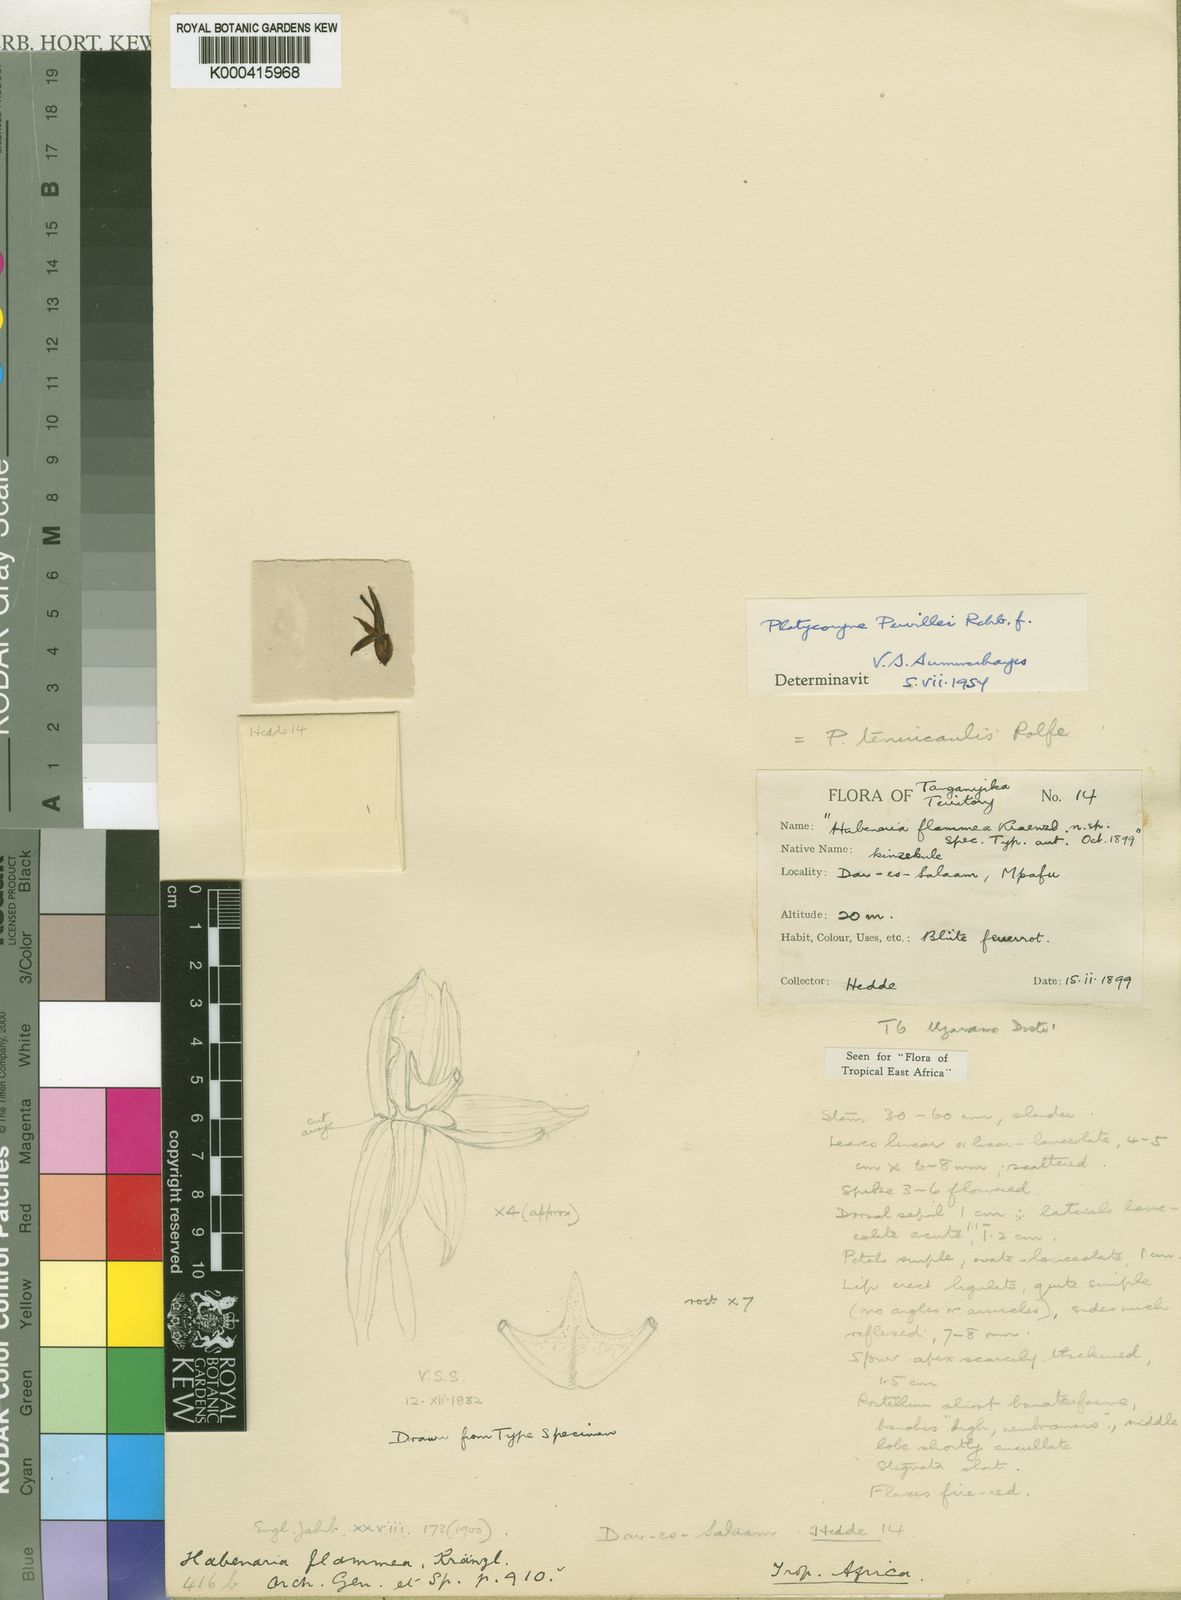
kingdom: Plantae
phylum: Tracheophyta
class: Liliopsida
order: Asparagales
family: Orchidaceae
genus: Platycoryne
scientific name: Platycoryne pervillei
